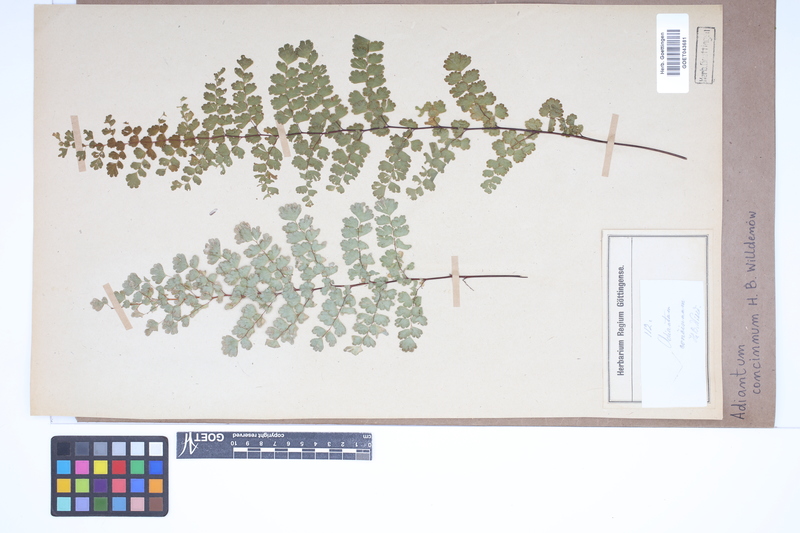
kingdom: Plantae
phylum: Tracheophyta
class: Polypodiopsida
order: Polypodiales
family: Pteridaceae
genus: Adiantum
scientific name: Adiantum concinnum
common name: Brittle maidenhair fern
